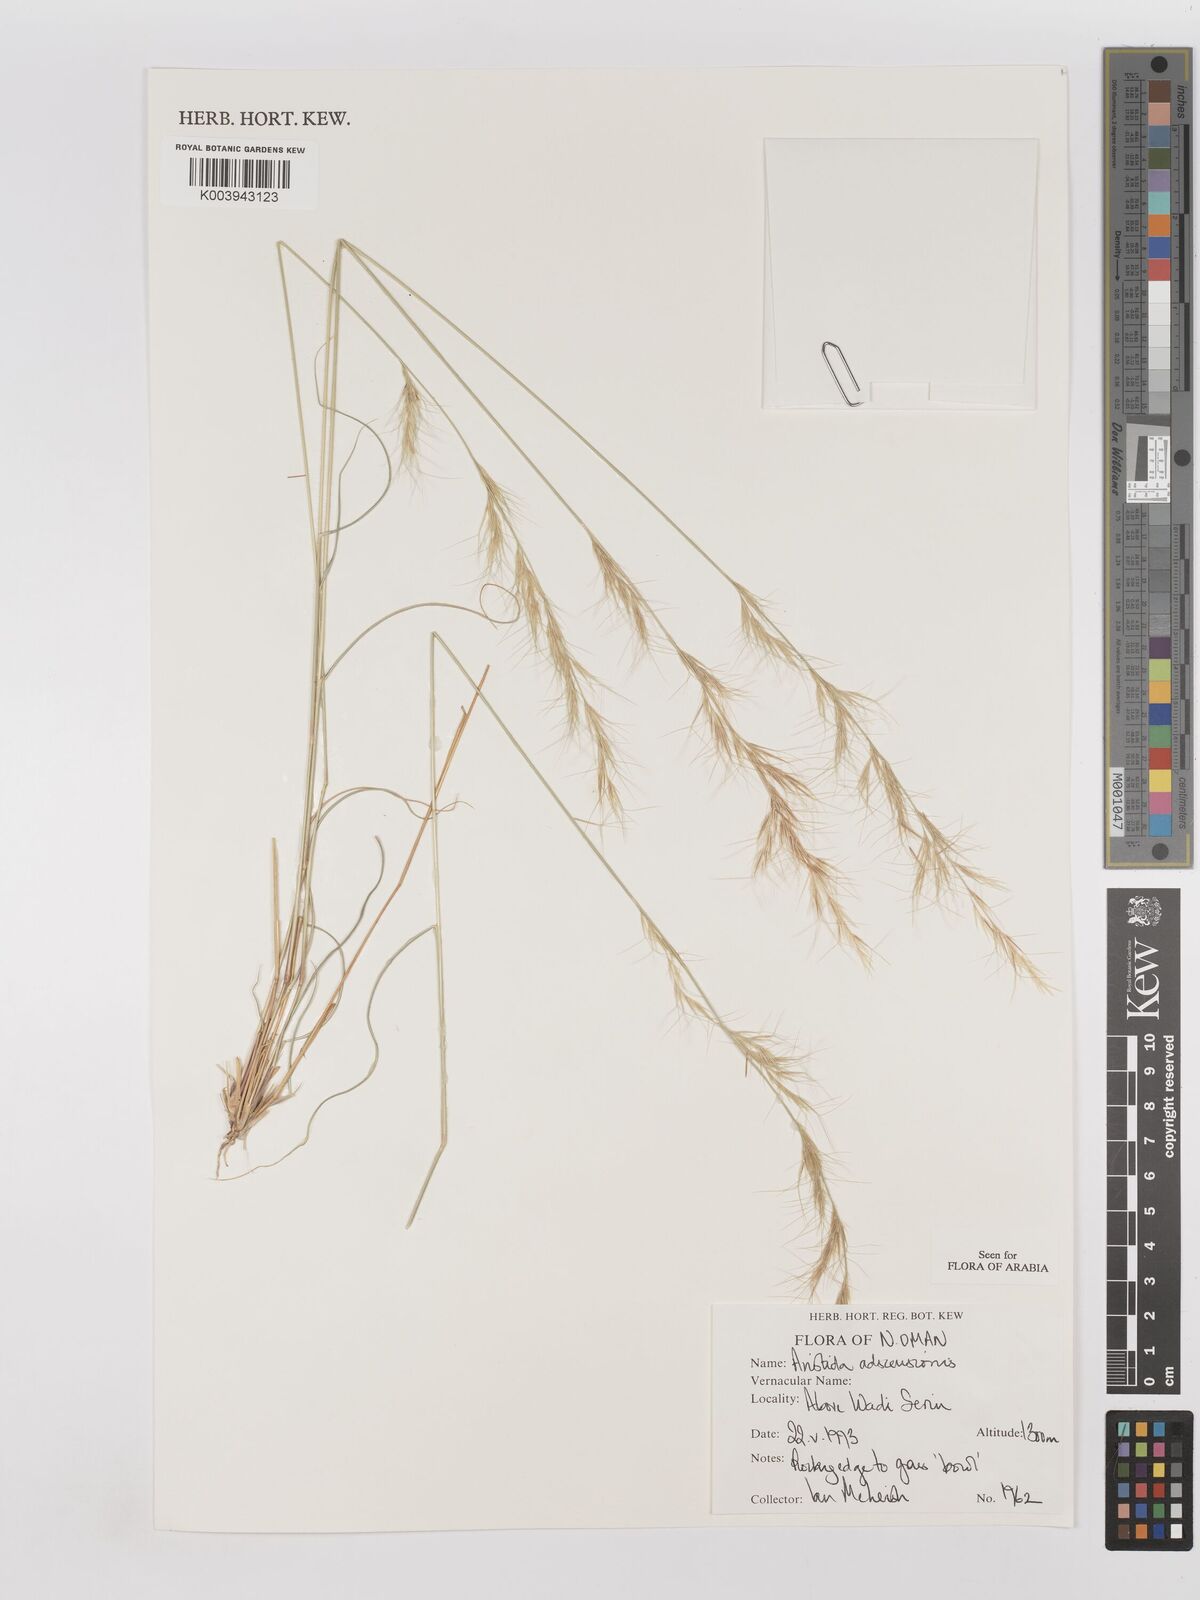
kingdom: Plantae
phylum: Tracheophyta
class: Liliopsida
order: Poales
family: Poaceae
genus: Aristida
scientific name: Aristida adscensionis
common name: Sixweeks threeawn
